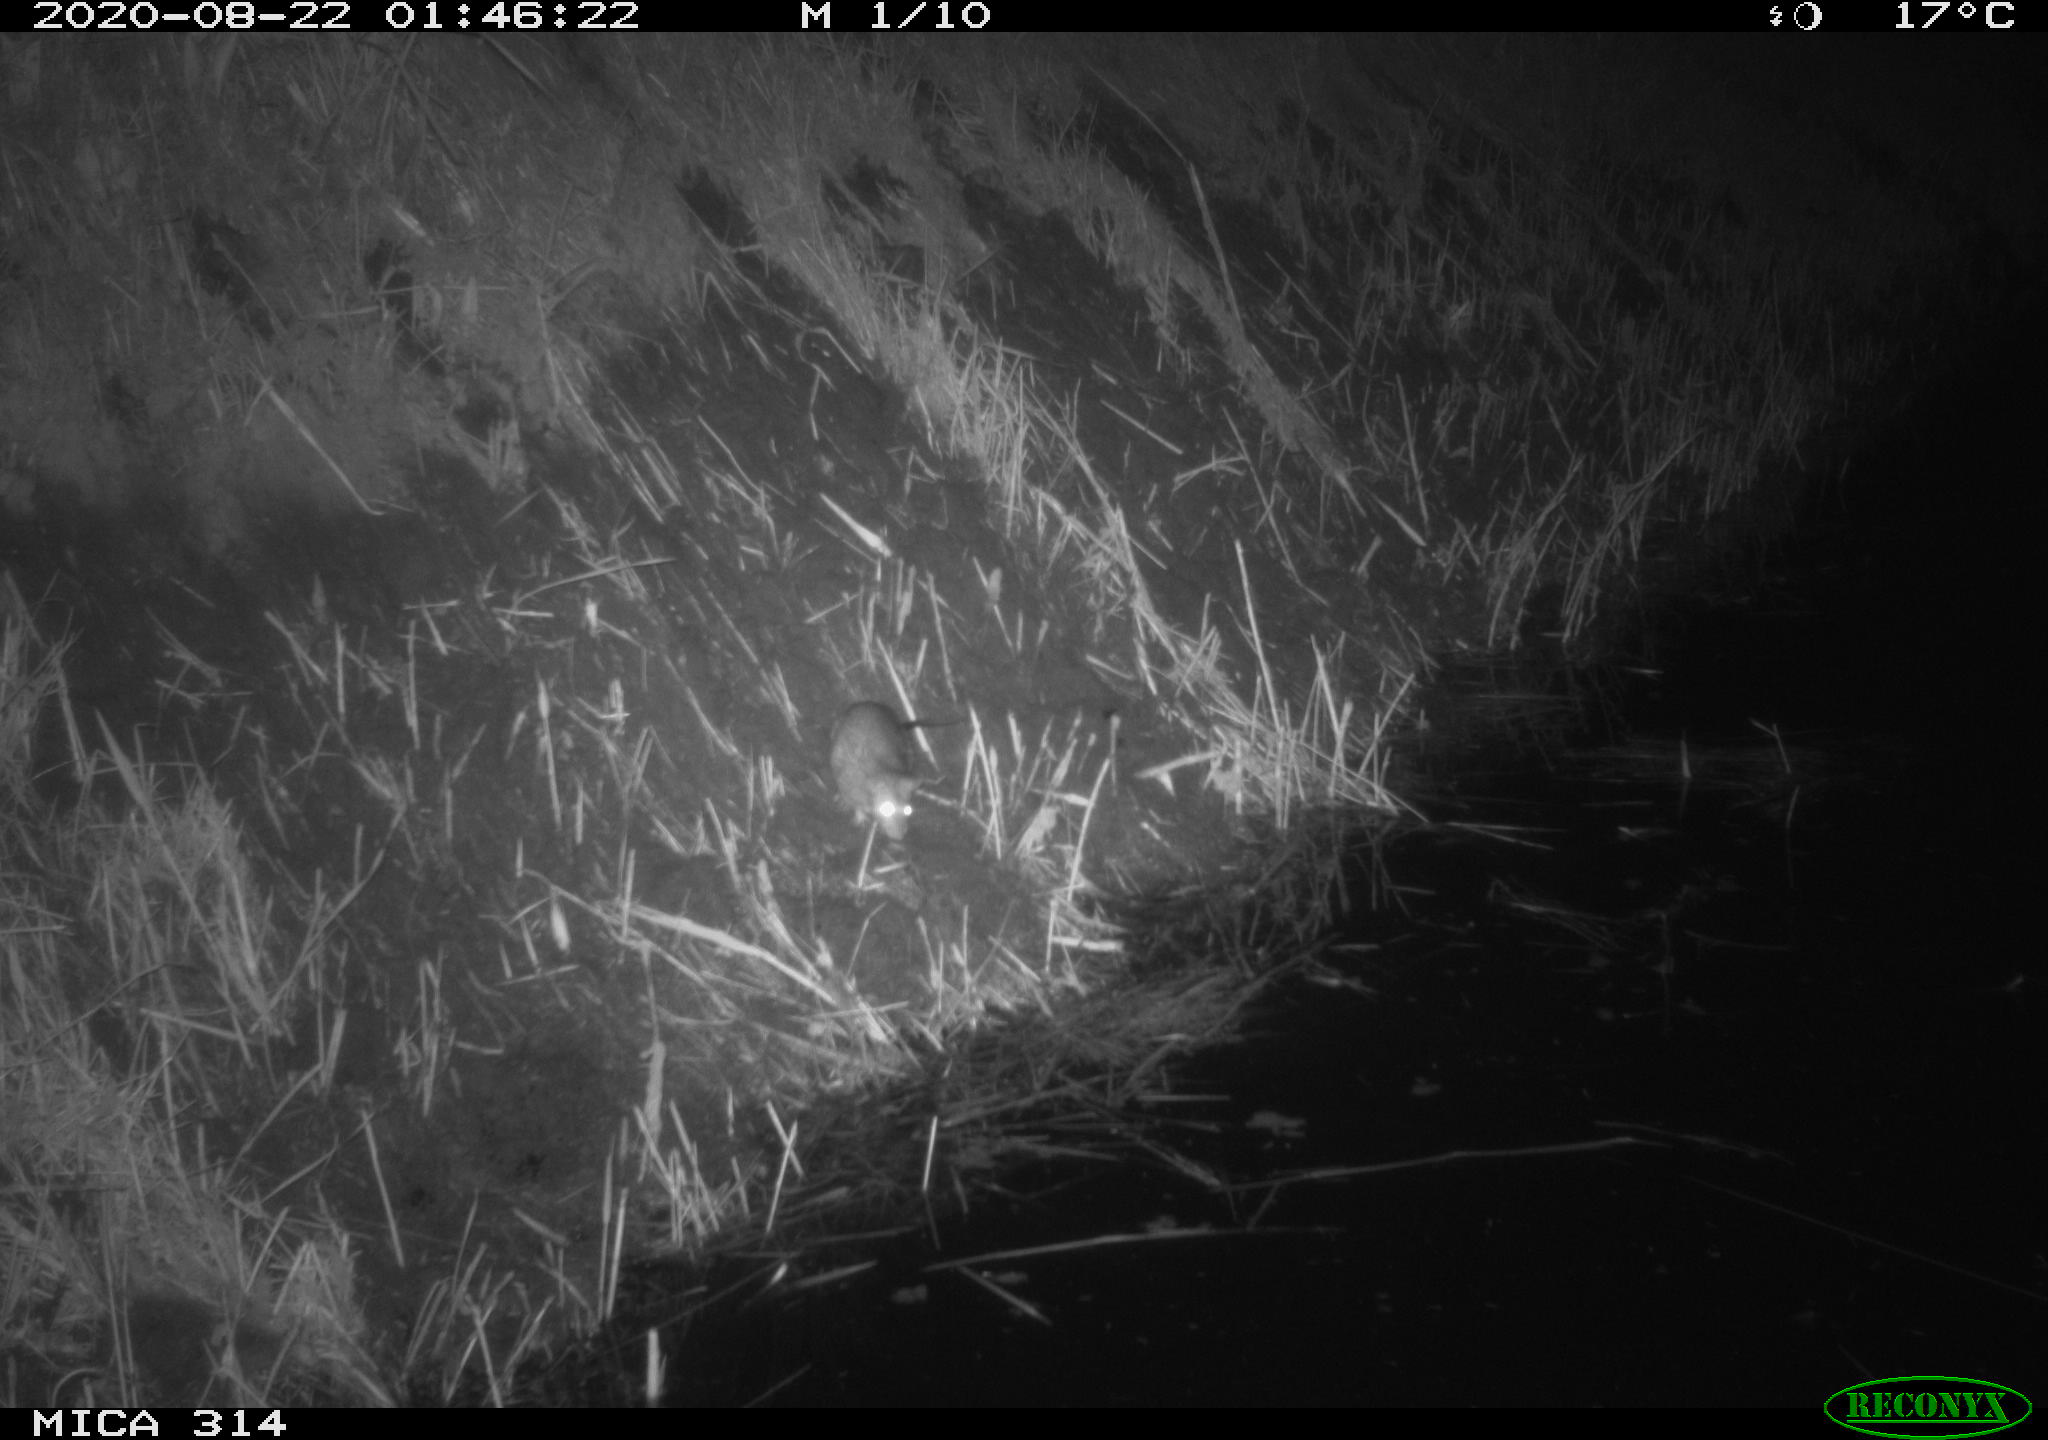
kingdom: Animalia
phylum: Chordata
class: Mammalia
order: Rodentia
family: Muridae
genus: Rattus
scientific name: Rattus norvegicus
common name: Brown rat
